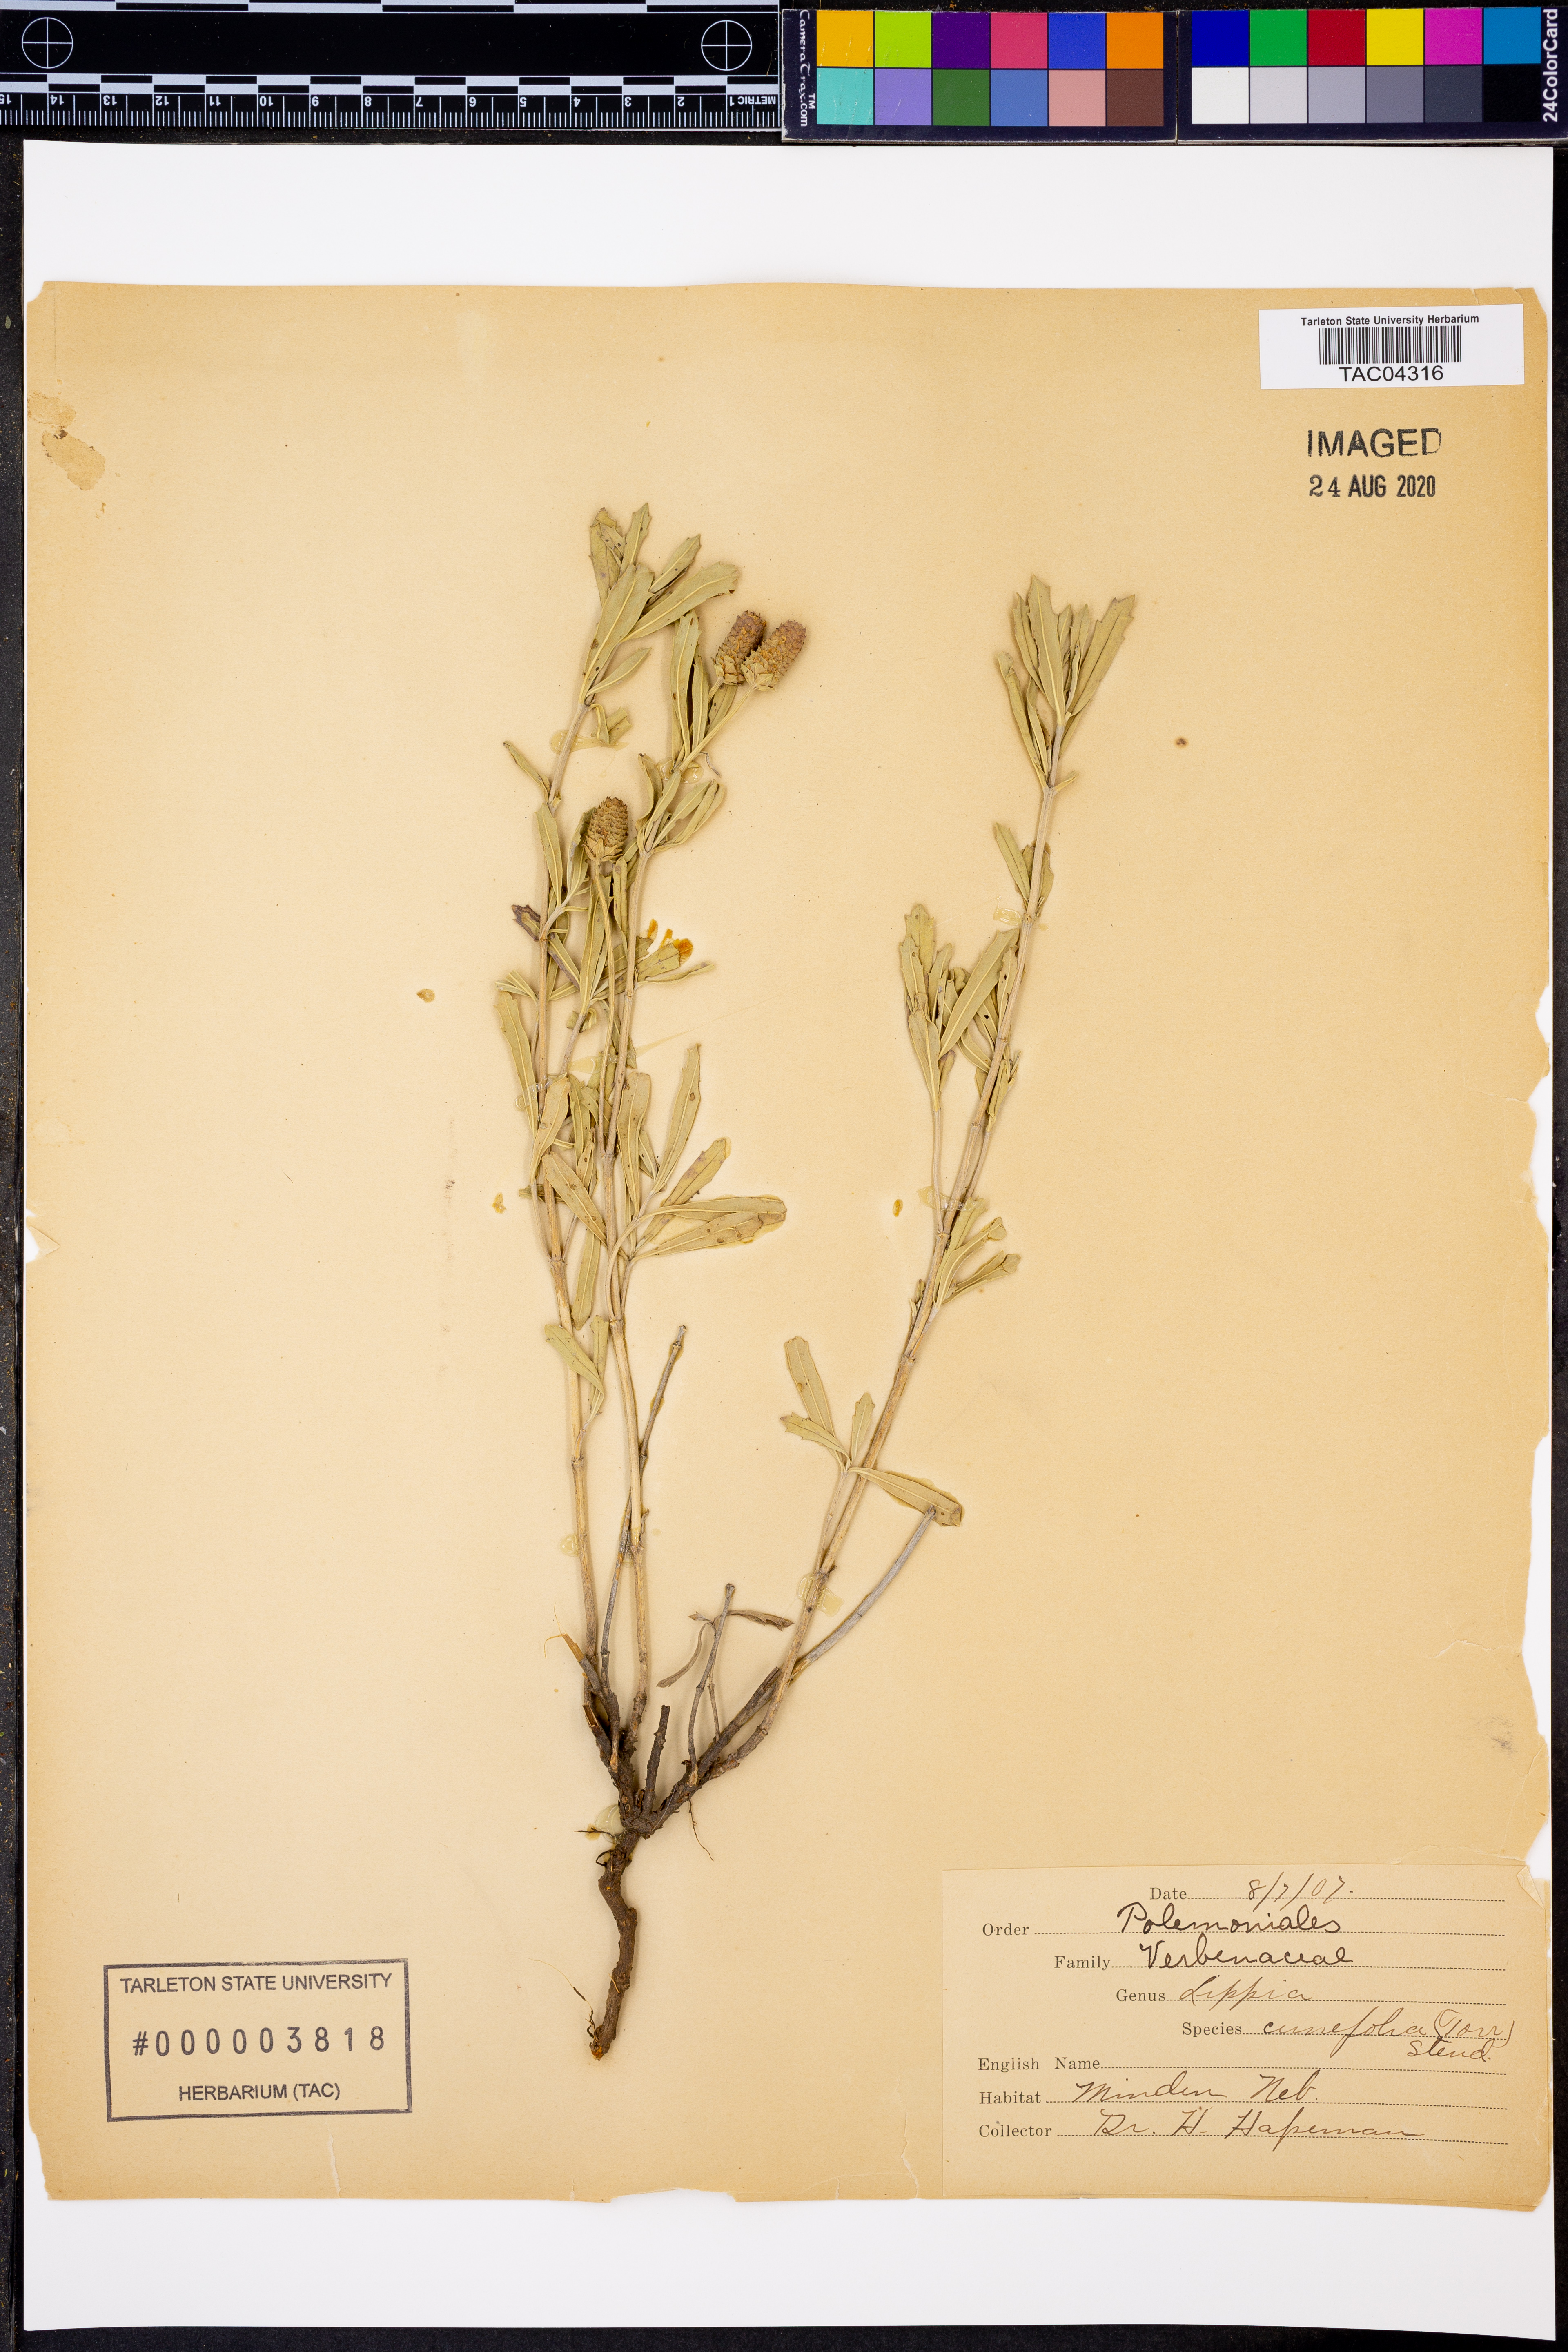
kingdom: Plantae
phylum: Tracheophyta
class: Magnoliopsida
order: Lamiales
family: Verbenaceae
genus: Phyla
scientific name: Phyla cuneifolia
